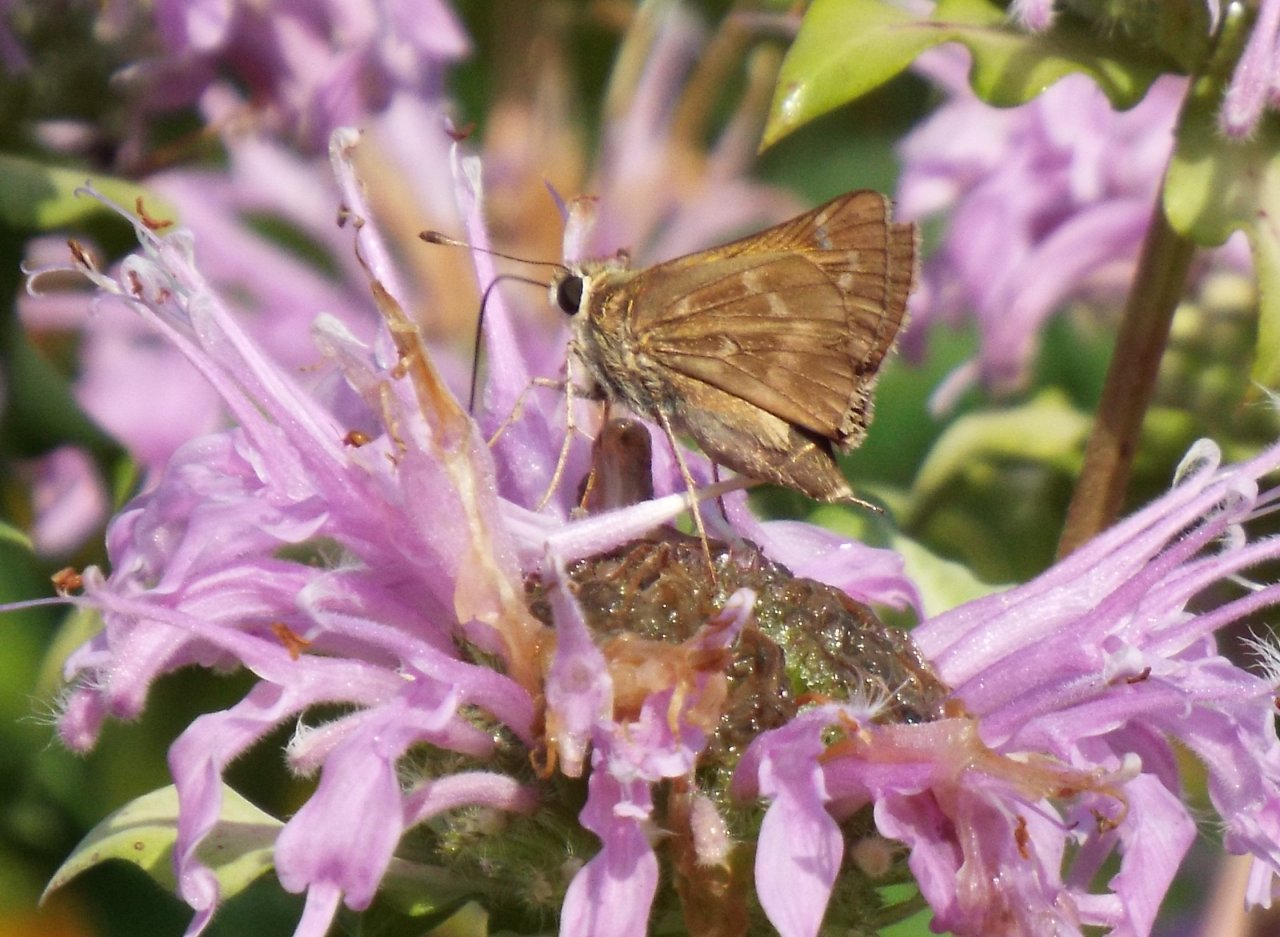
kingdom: Animalia
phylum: Arthropoda
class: Insecta
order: Lepidoptera
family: Hesperiidae
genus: Atalopedes
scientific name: Atalopedes campestris
